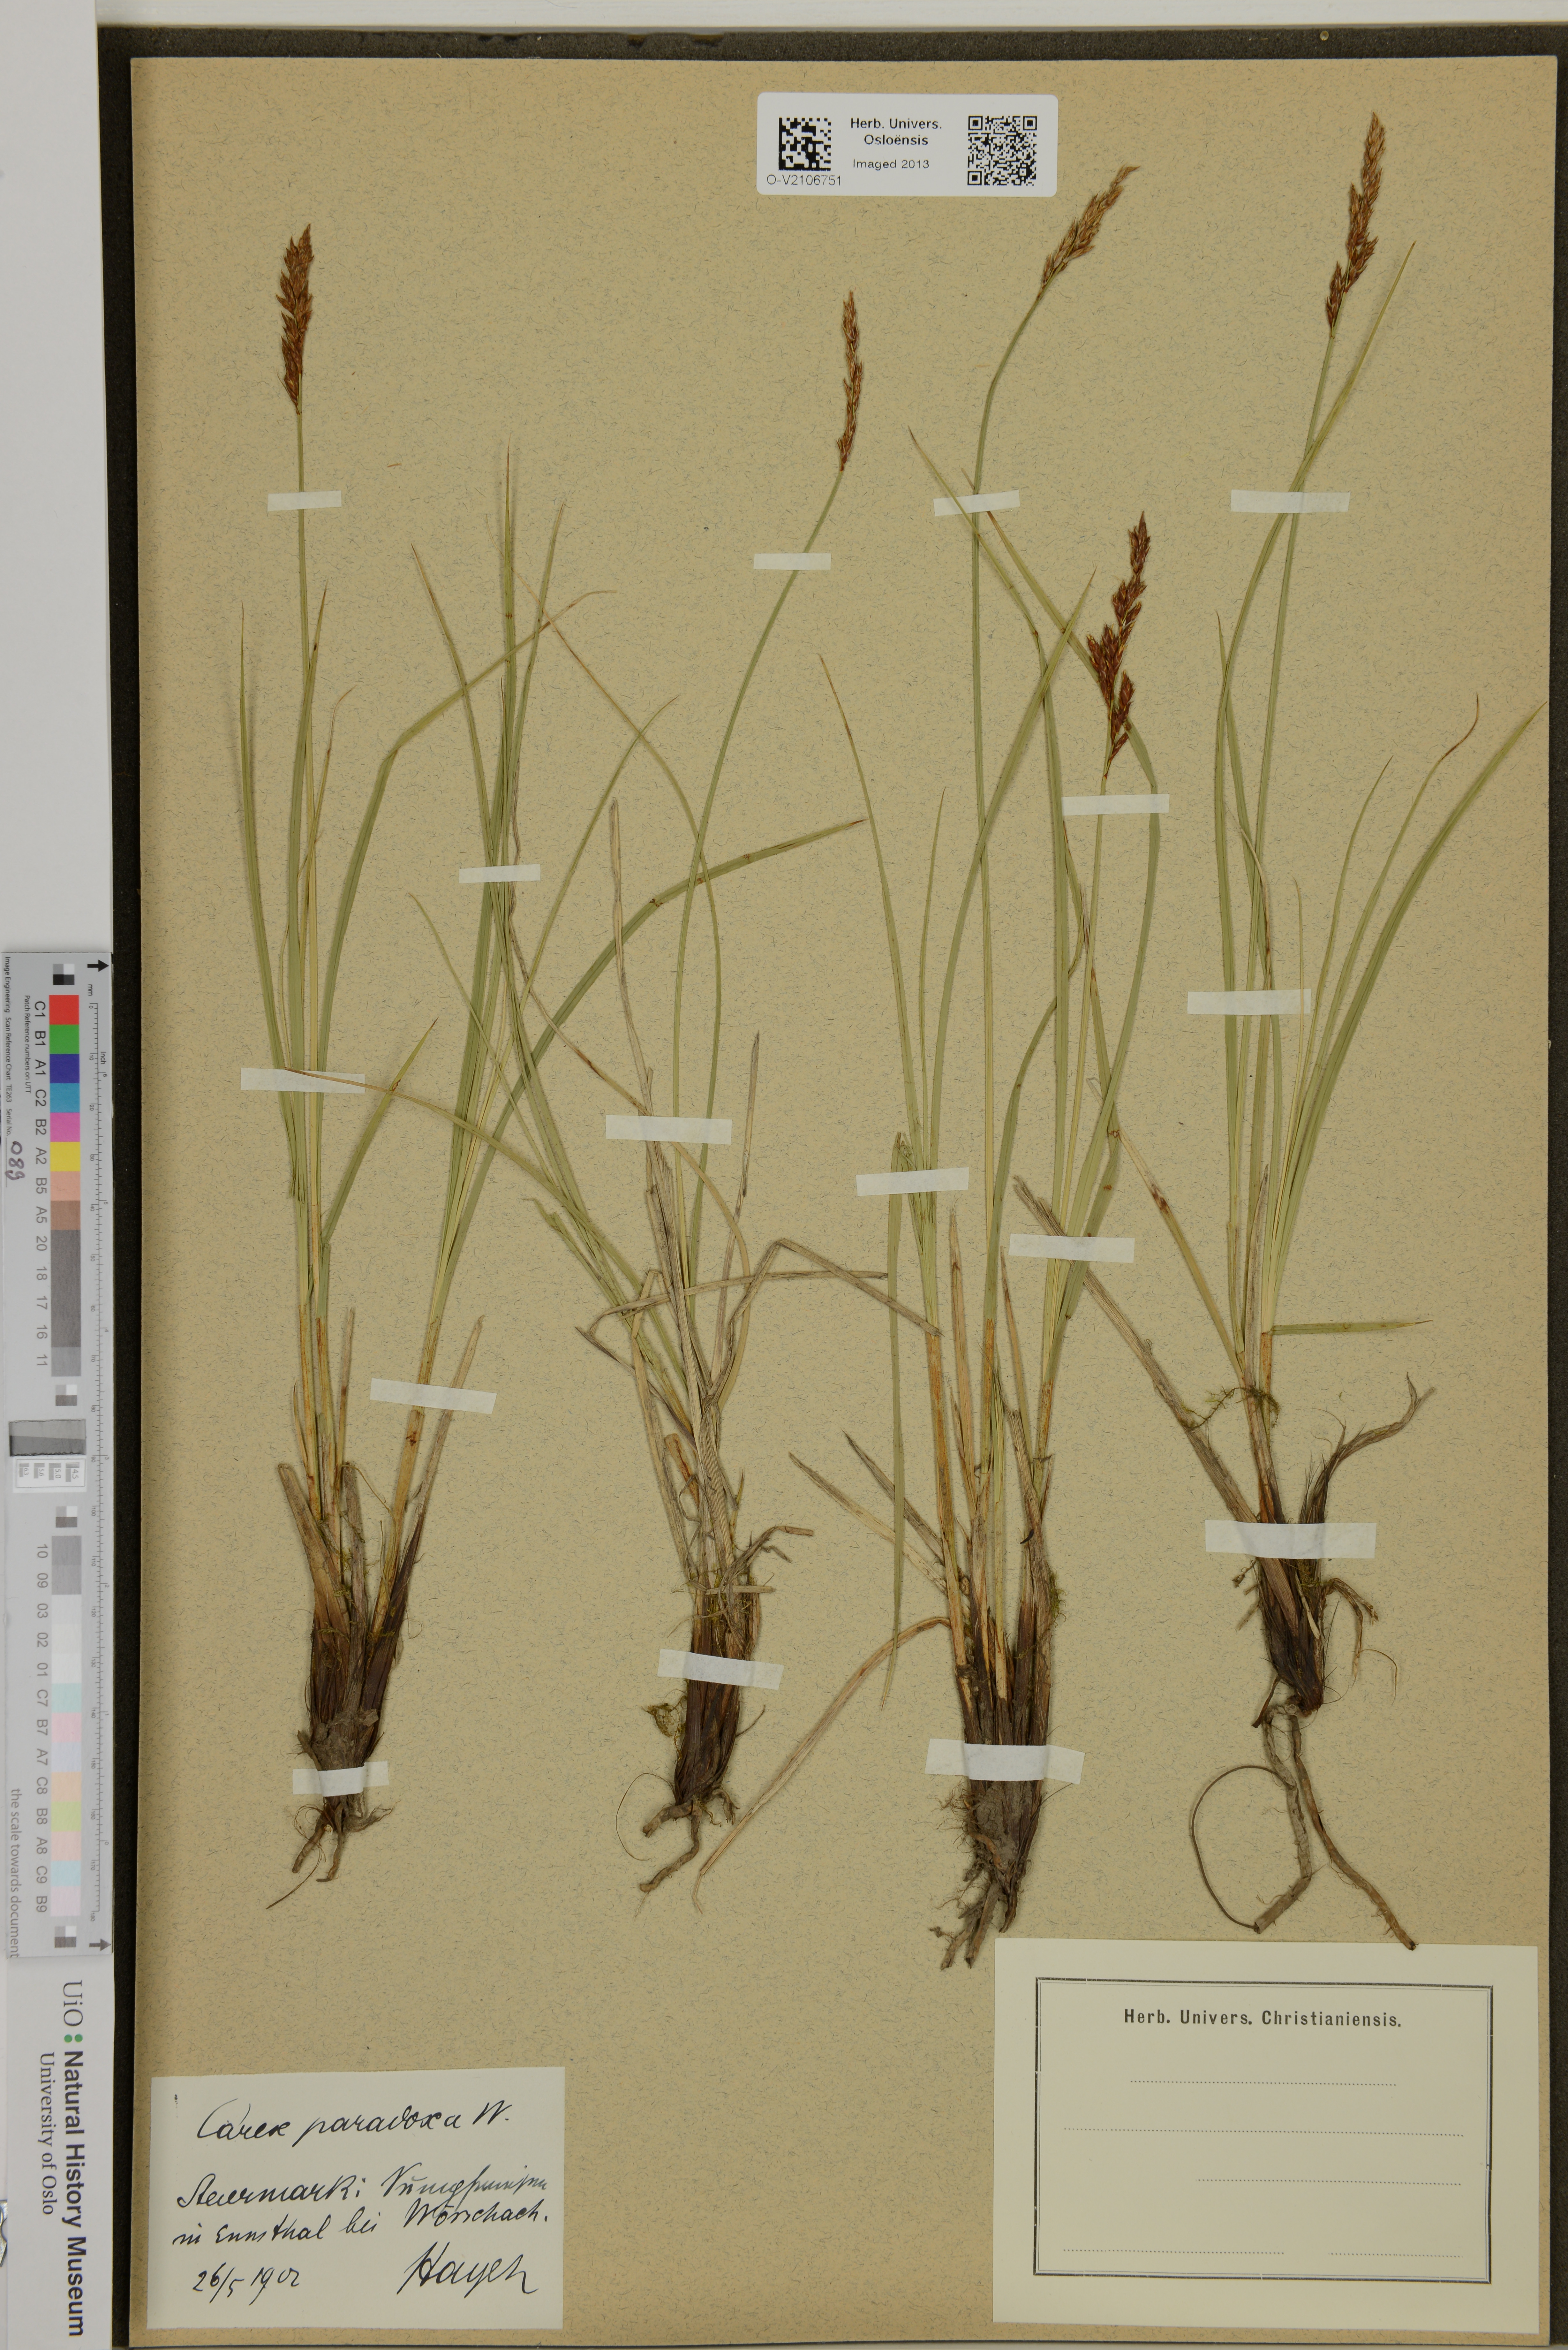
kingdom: Plantae
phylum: Tracheophyta
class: Liliopsida
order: Poales
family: Cyperaceae
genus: Carex
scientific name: Carex appropinquata
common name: Fibrous tussock-sedge
